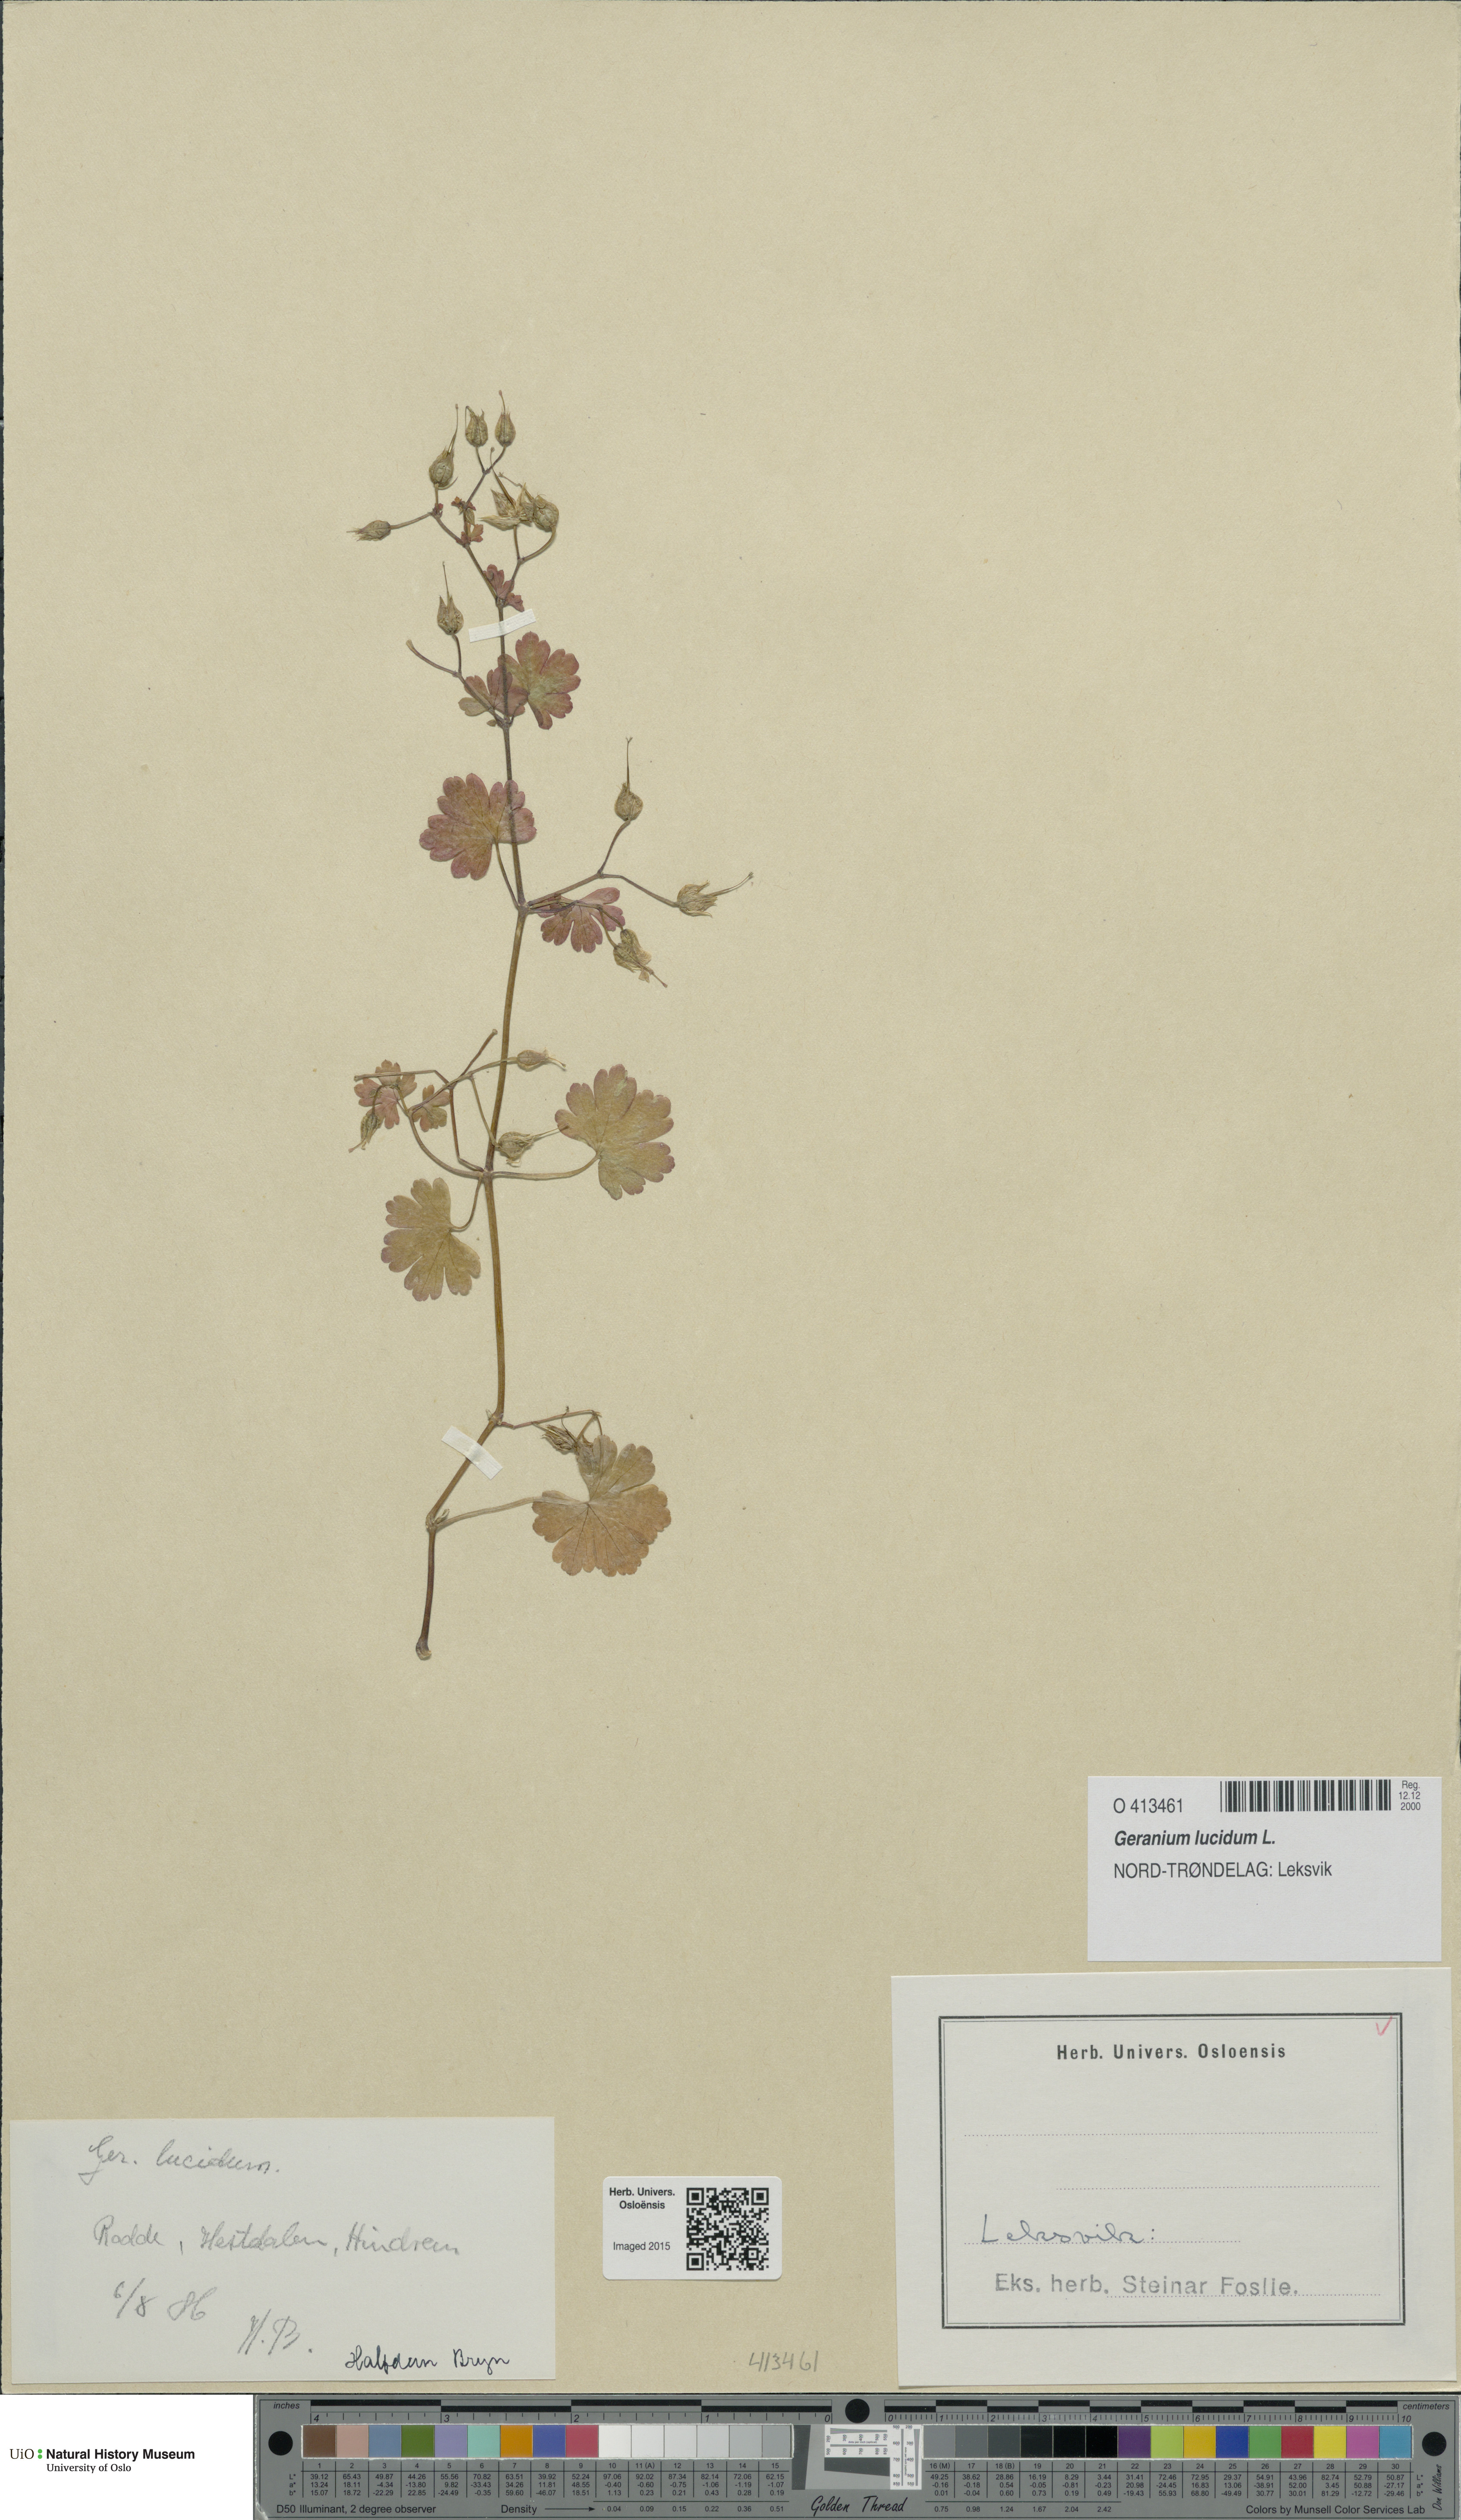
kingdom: Plantae
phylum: Tracheophyta
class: Magnoliopsida
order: Geraniales
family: Geraniaceae
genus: Geranium
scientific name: Geranium lucidum
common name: Shining crane's-bill
